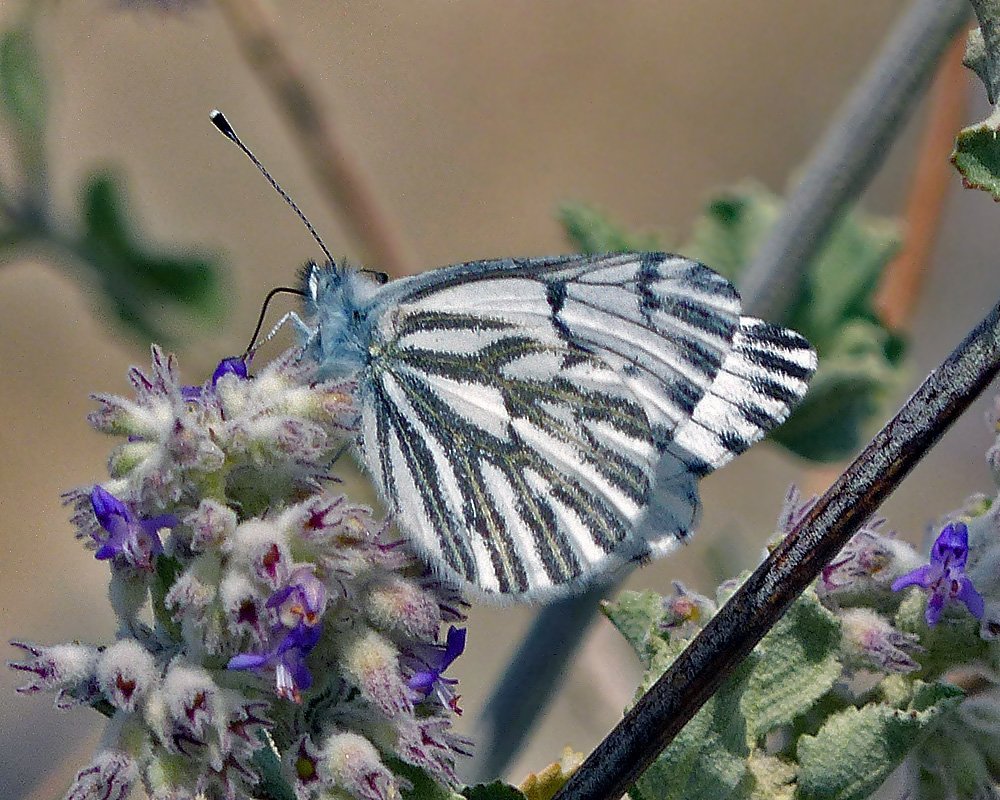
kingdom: Animalia
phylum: Arthropoda
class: Insecta
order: Lepidoptera
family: Pieridae
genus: Pontia
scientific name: Pontia sisymbrii
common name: Spring White
